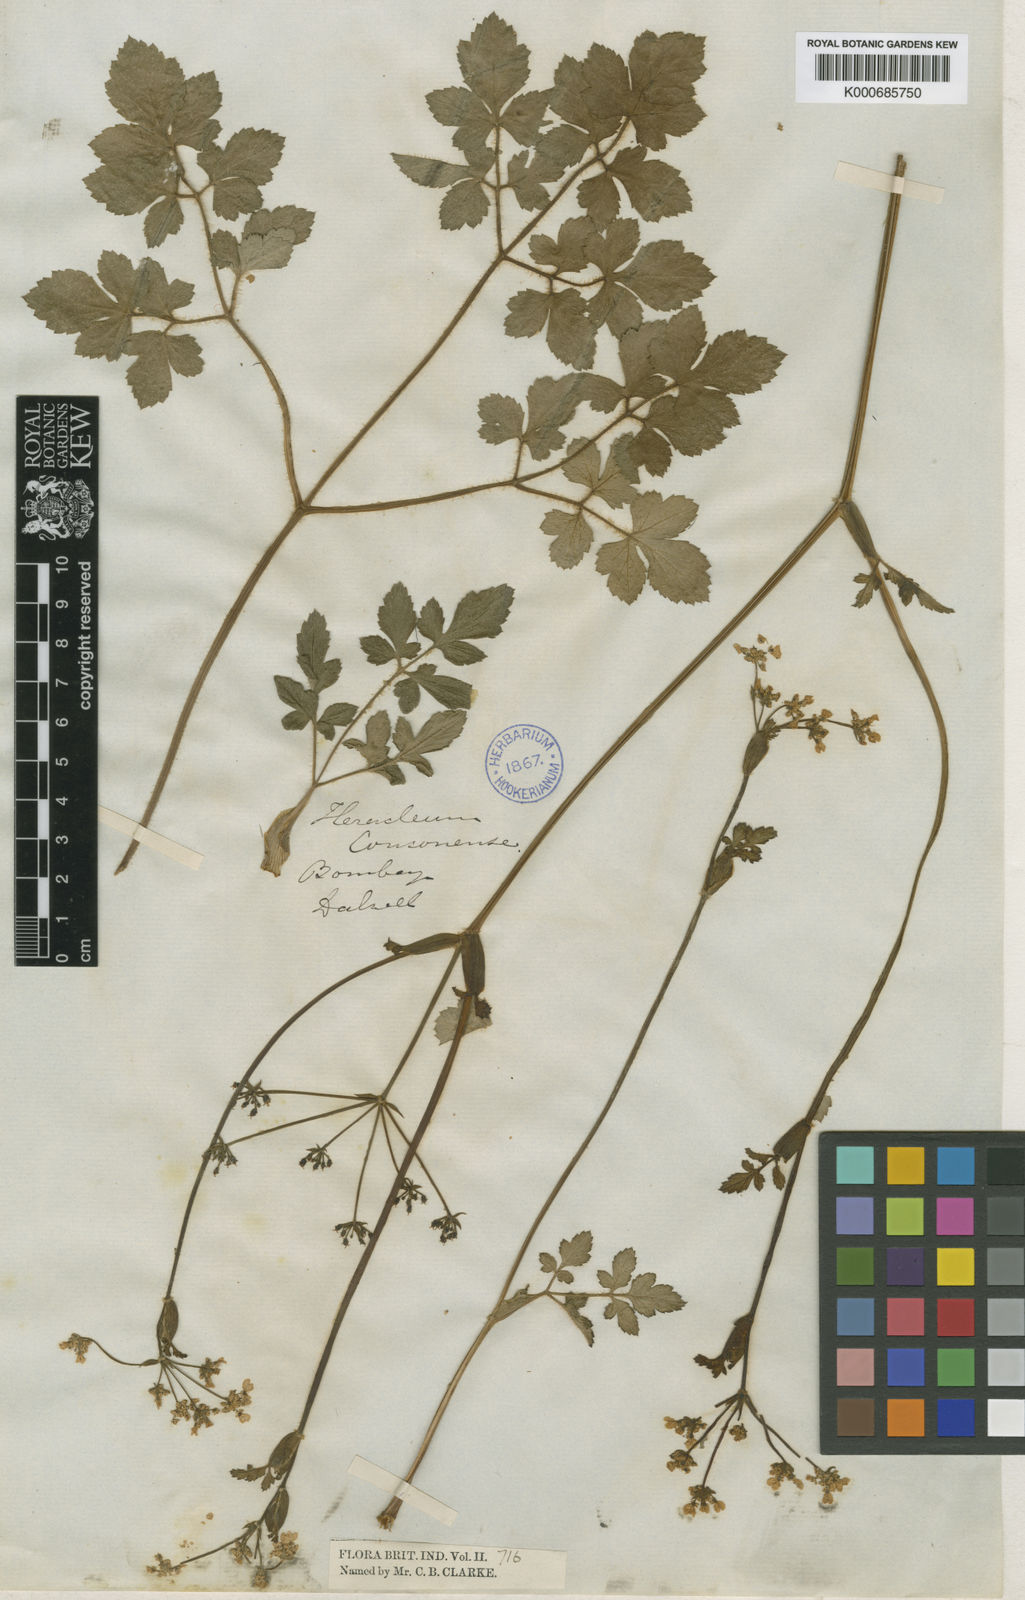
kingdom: Plantae
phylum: Tracheophyta
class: Magnoliopsida
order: Apiales
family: Apiaceae
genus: Pinda
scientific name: Pinda concanensis
